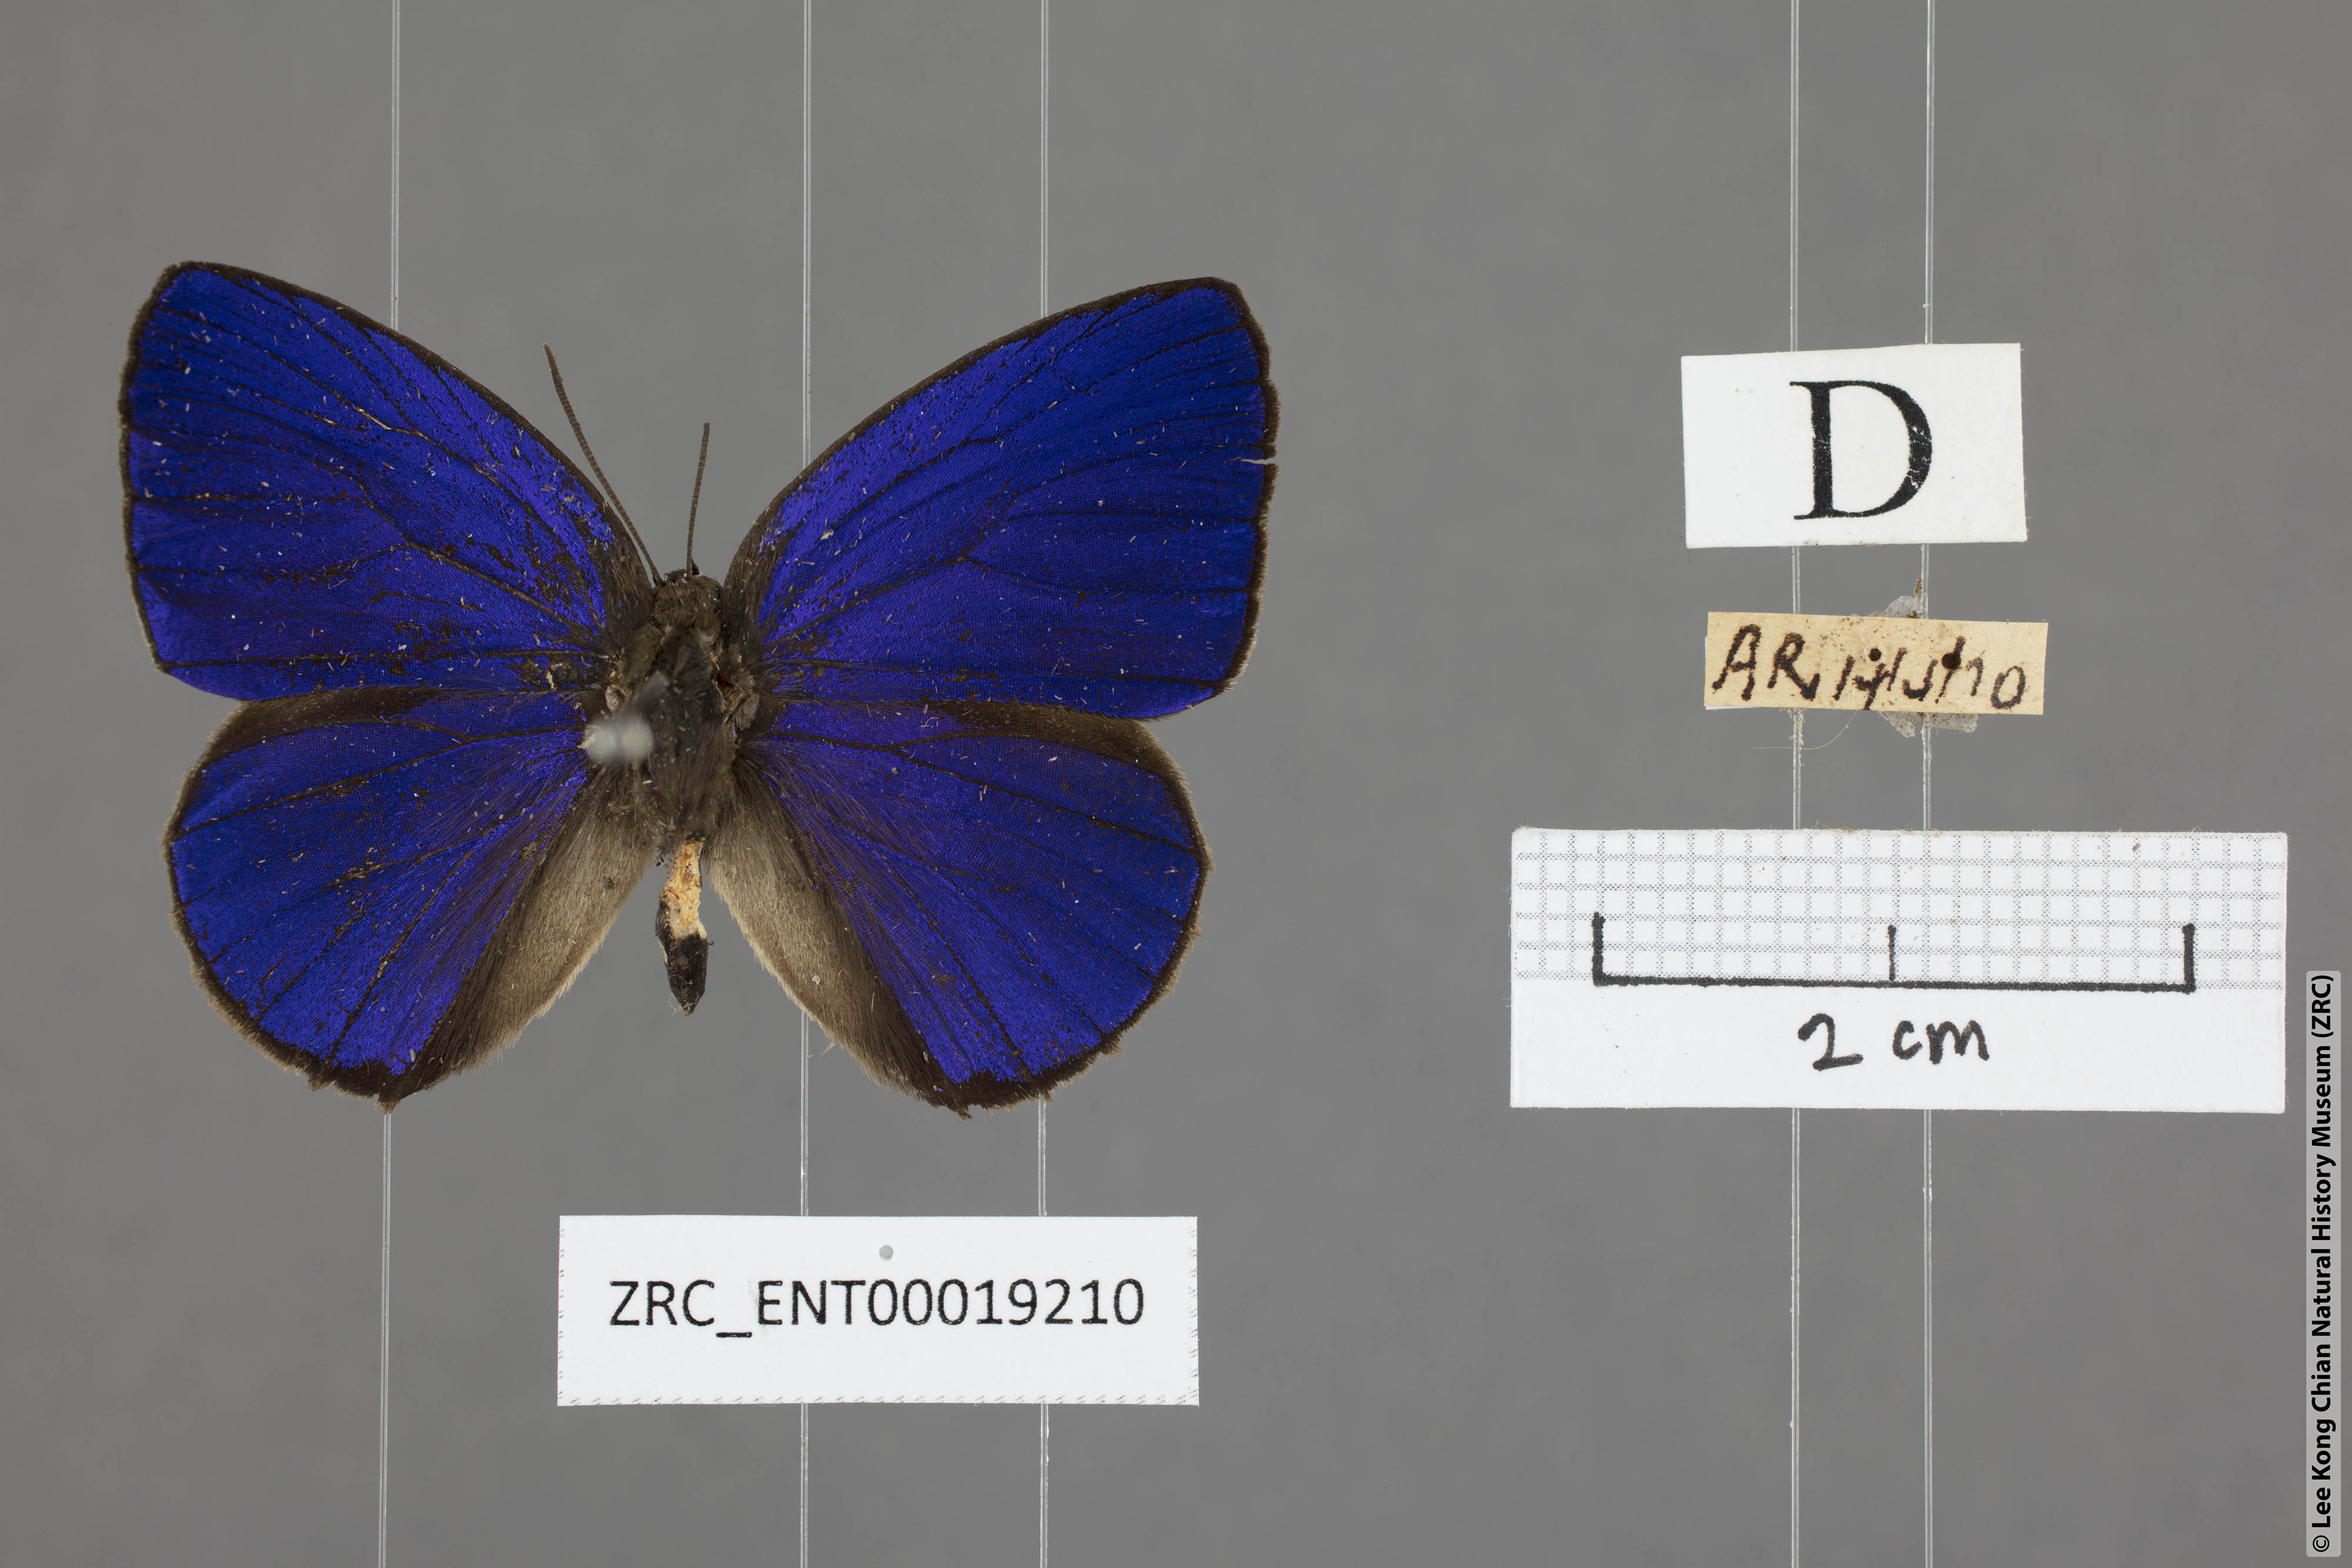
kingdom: Animalia
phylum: Arthropoda
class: Insecta
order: Lepidoptera
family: Lycaenidae
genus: Arhopala
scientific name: Arhopala arvina
